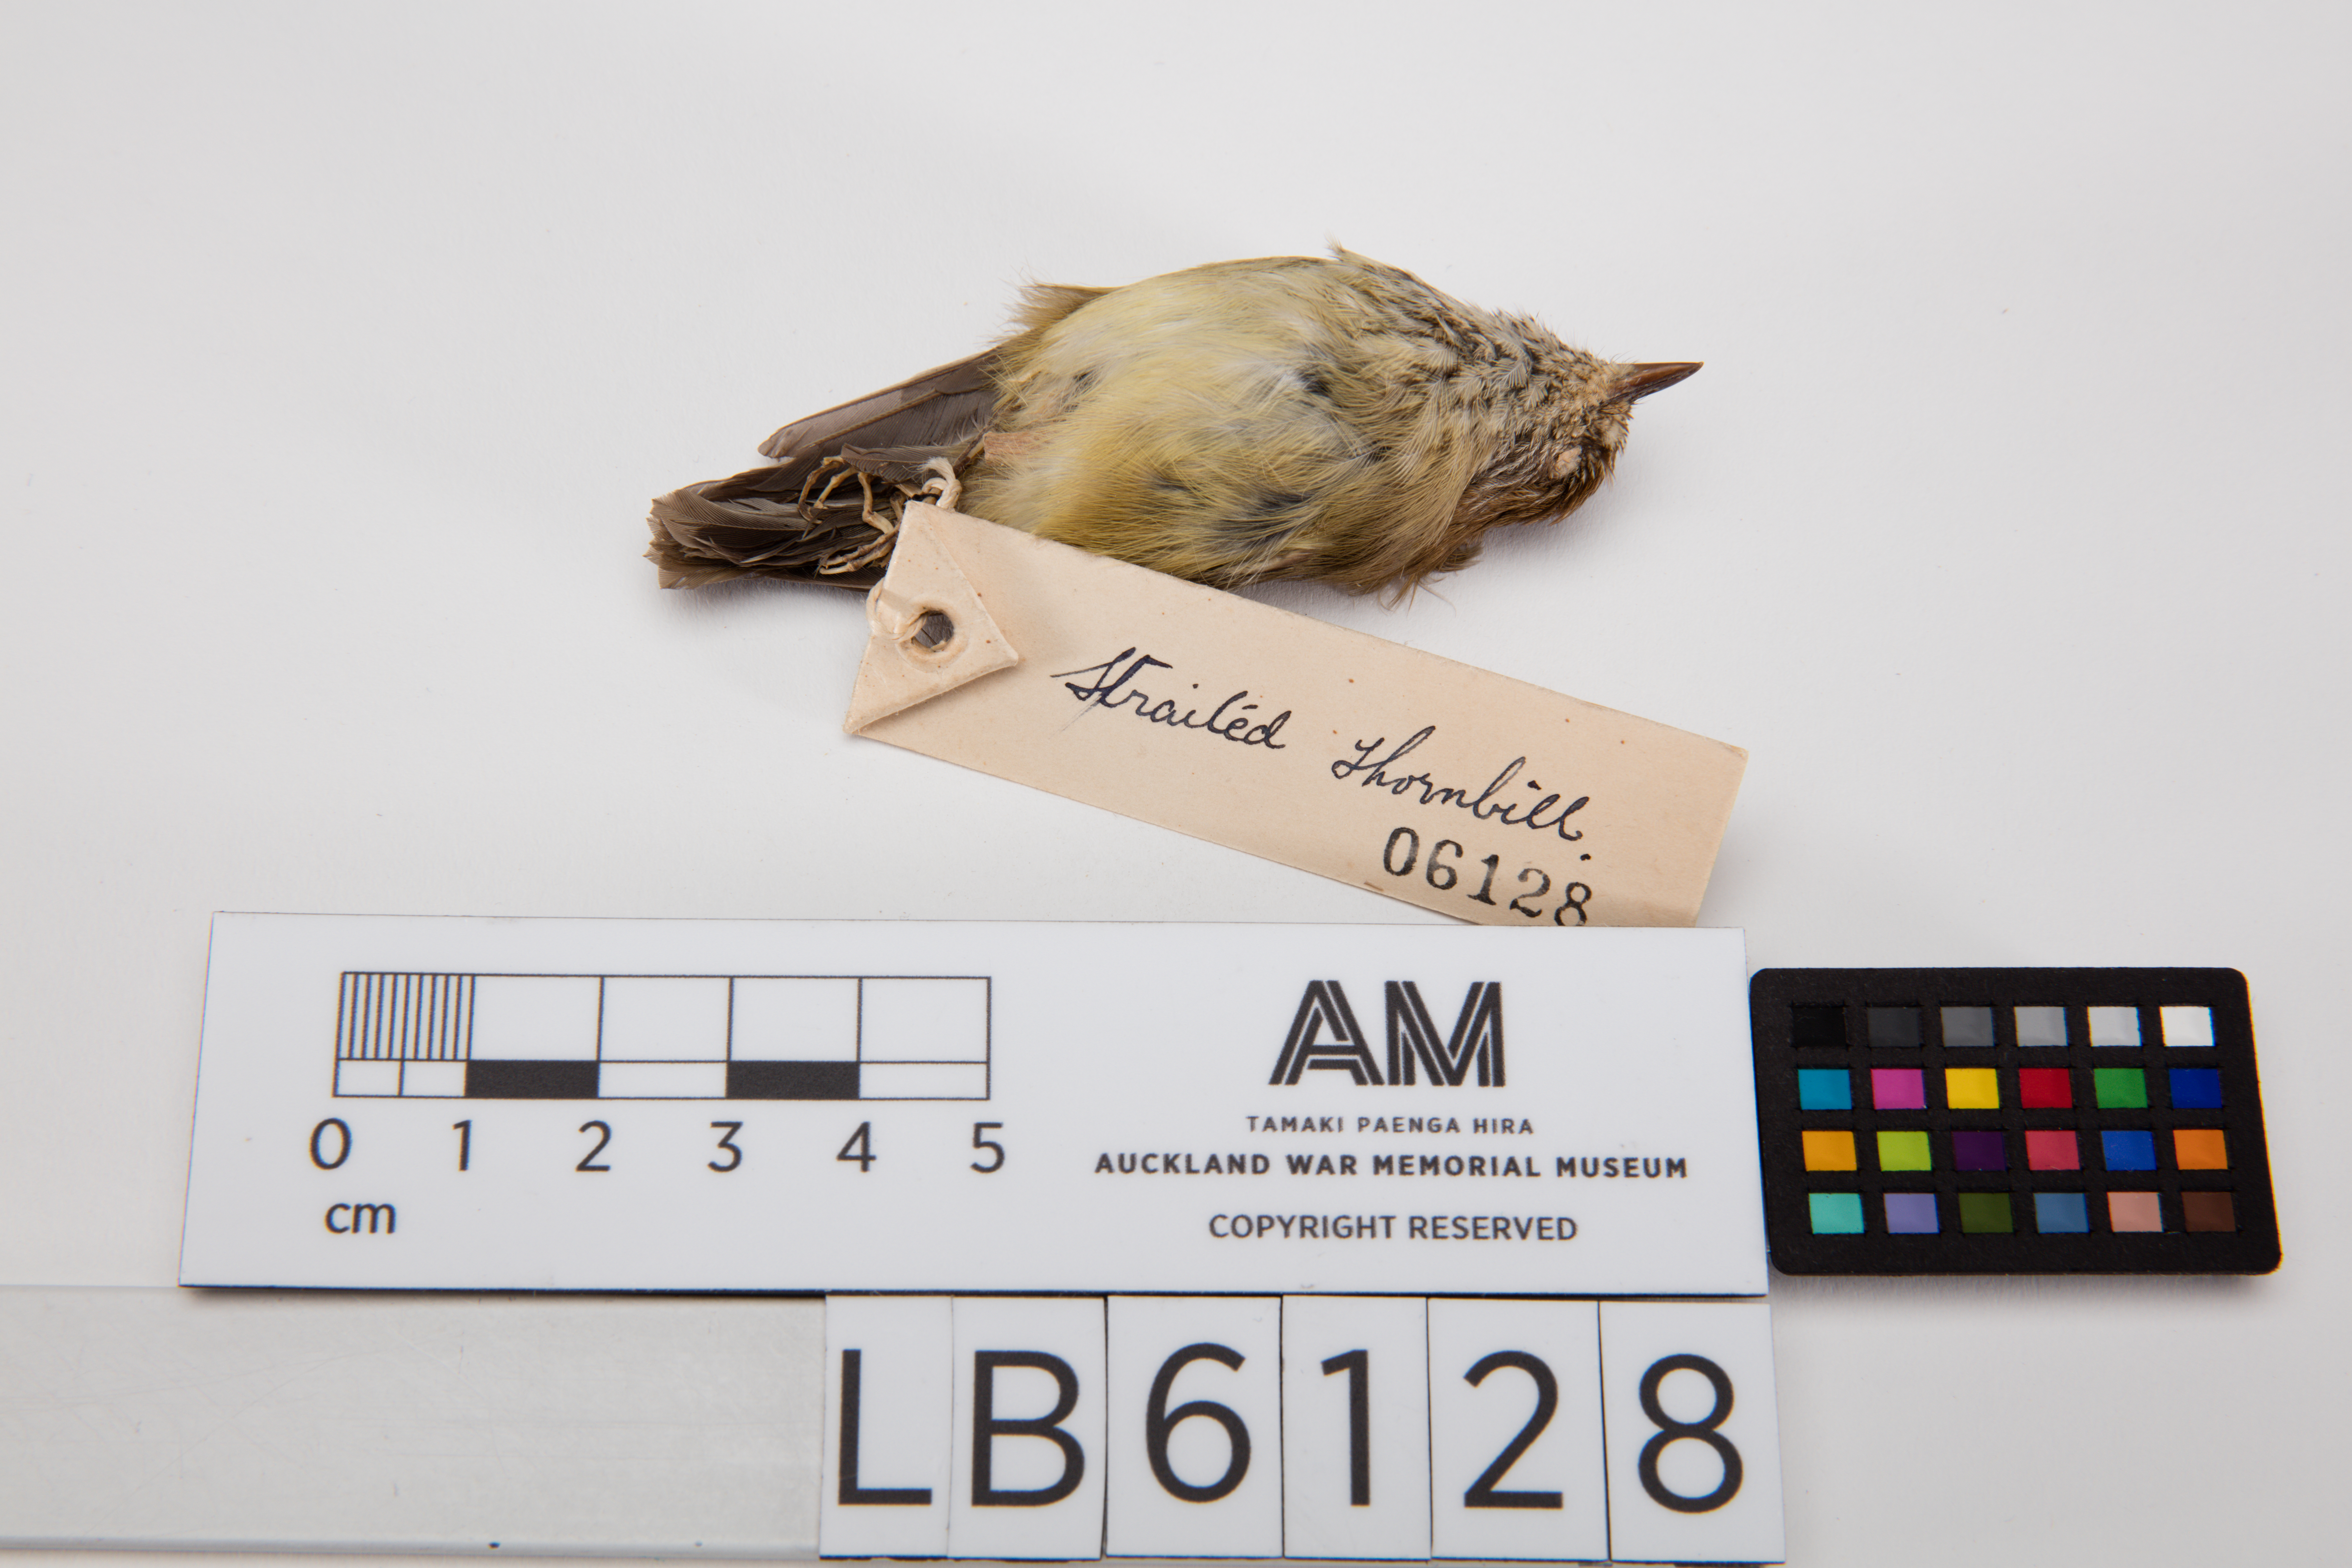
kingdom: Animalia
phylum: Chordata
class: Aves
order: Passeriformes
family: Acanthizidae
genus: Acanthiza
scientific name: Acanthiza lineata
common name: Striated thornbill
